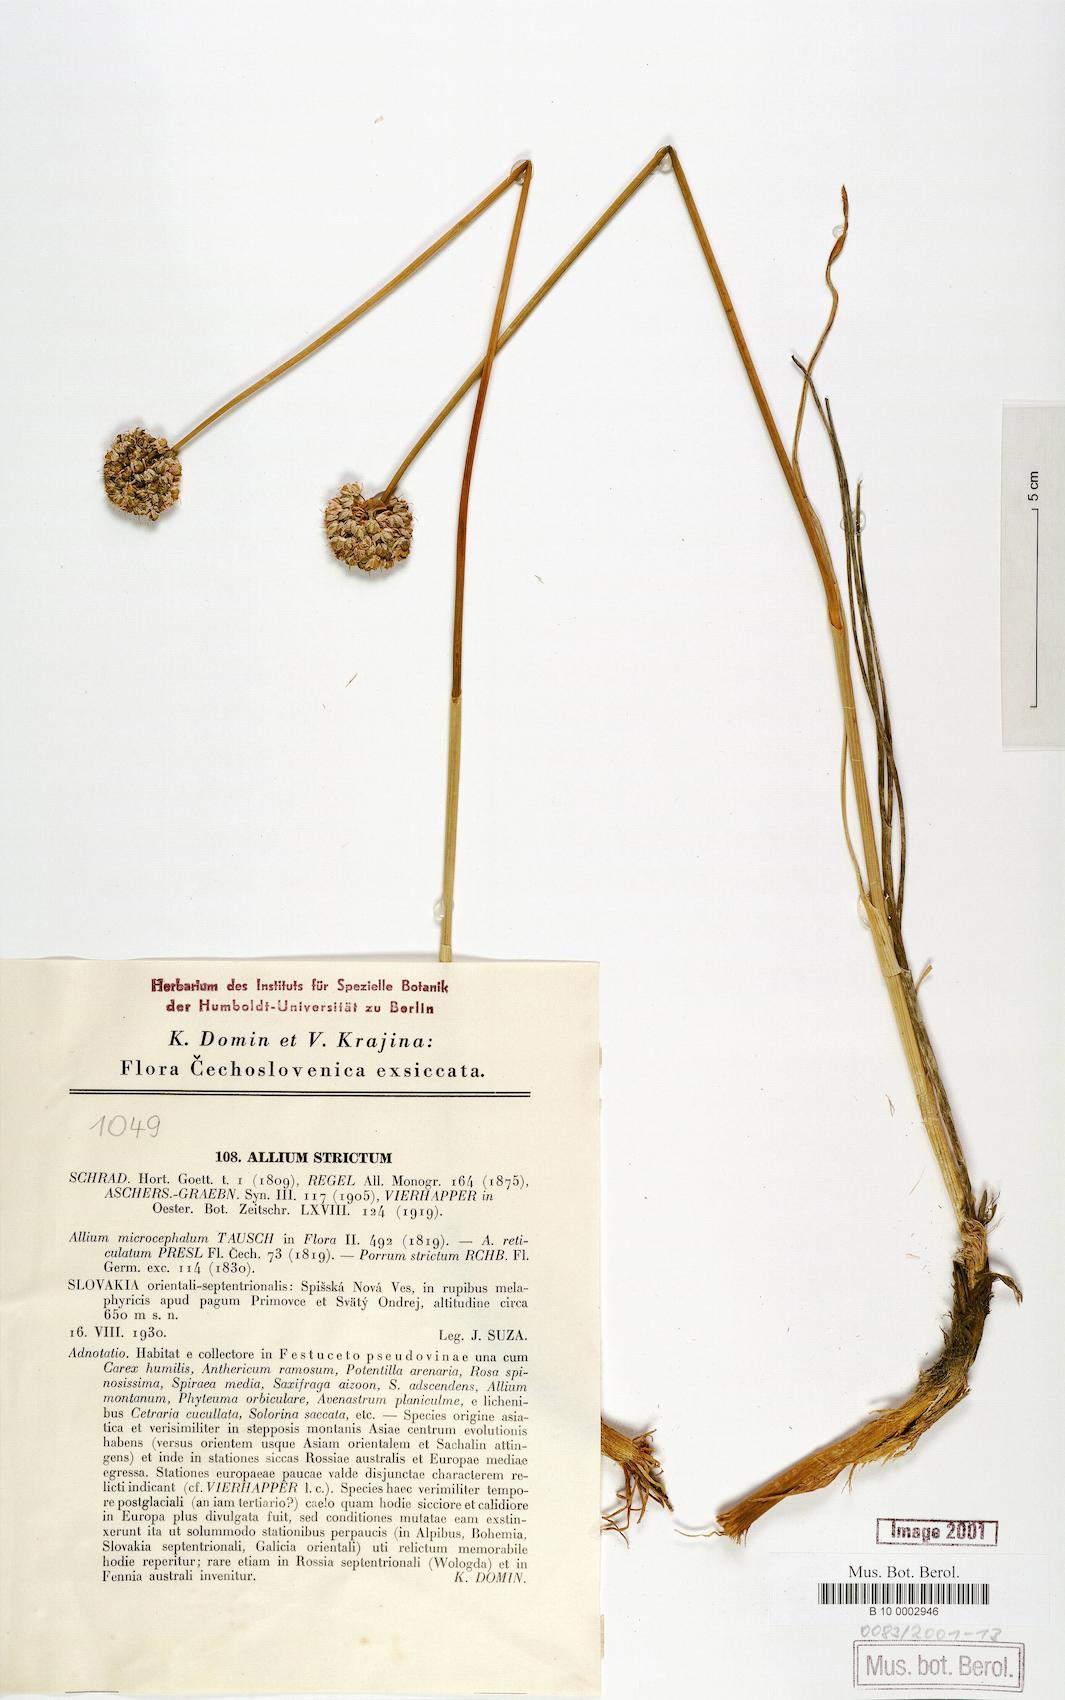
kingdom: Plantae
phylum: Tracheophyta
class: Liliopsida
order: Asparagales
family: Amaryllidaceae
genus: Allium
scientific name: Allium strictum
